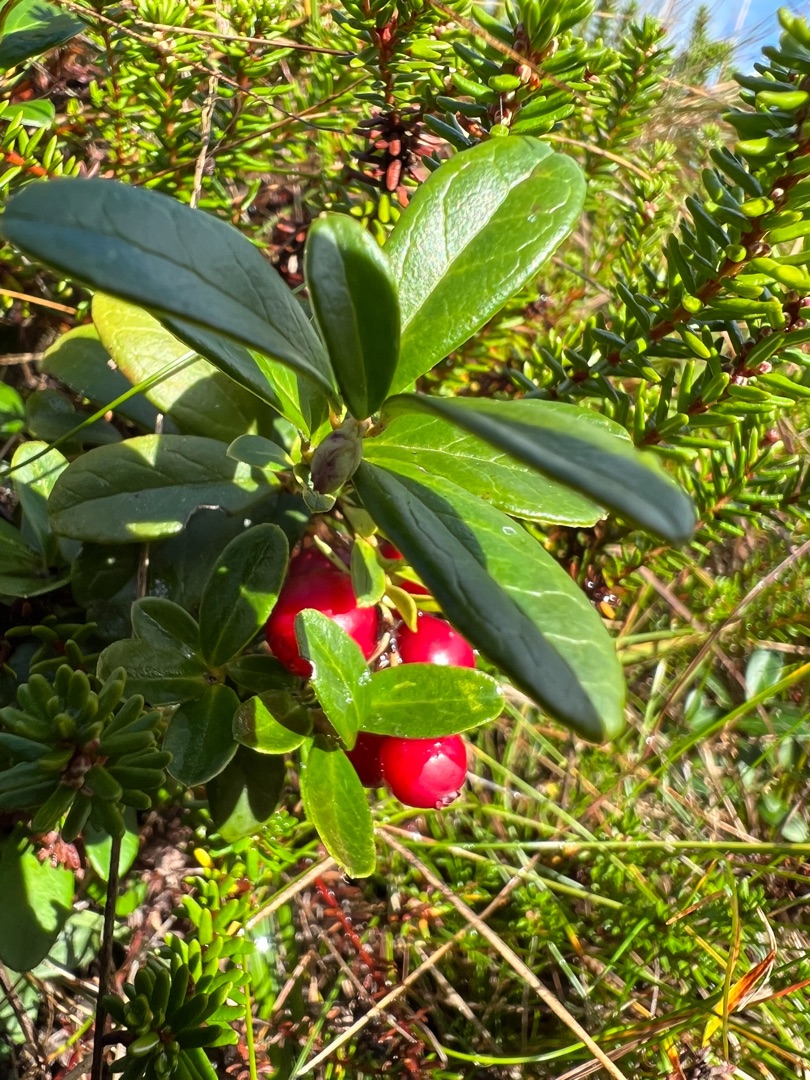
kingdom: Plantae
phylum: Tracheophyta
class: Magnoliopsida
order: Ericales
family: Ericaceae
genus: Vaccinium
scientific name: Vaccinium vitis-idaea
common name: Tyttebær
